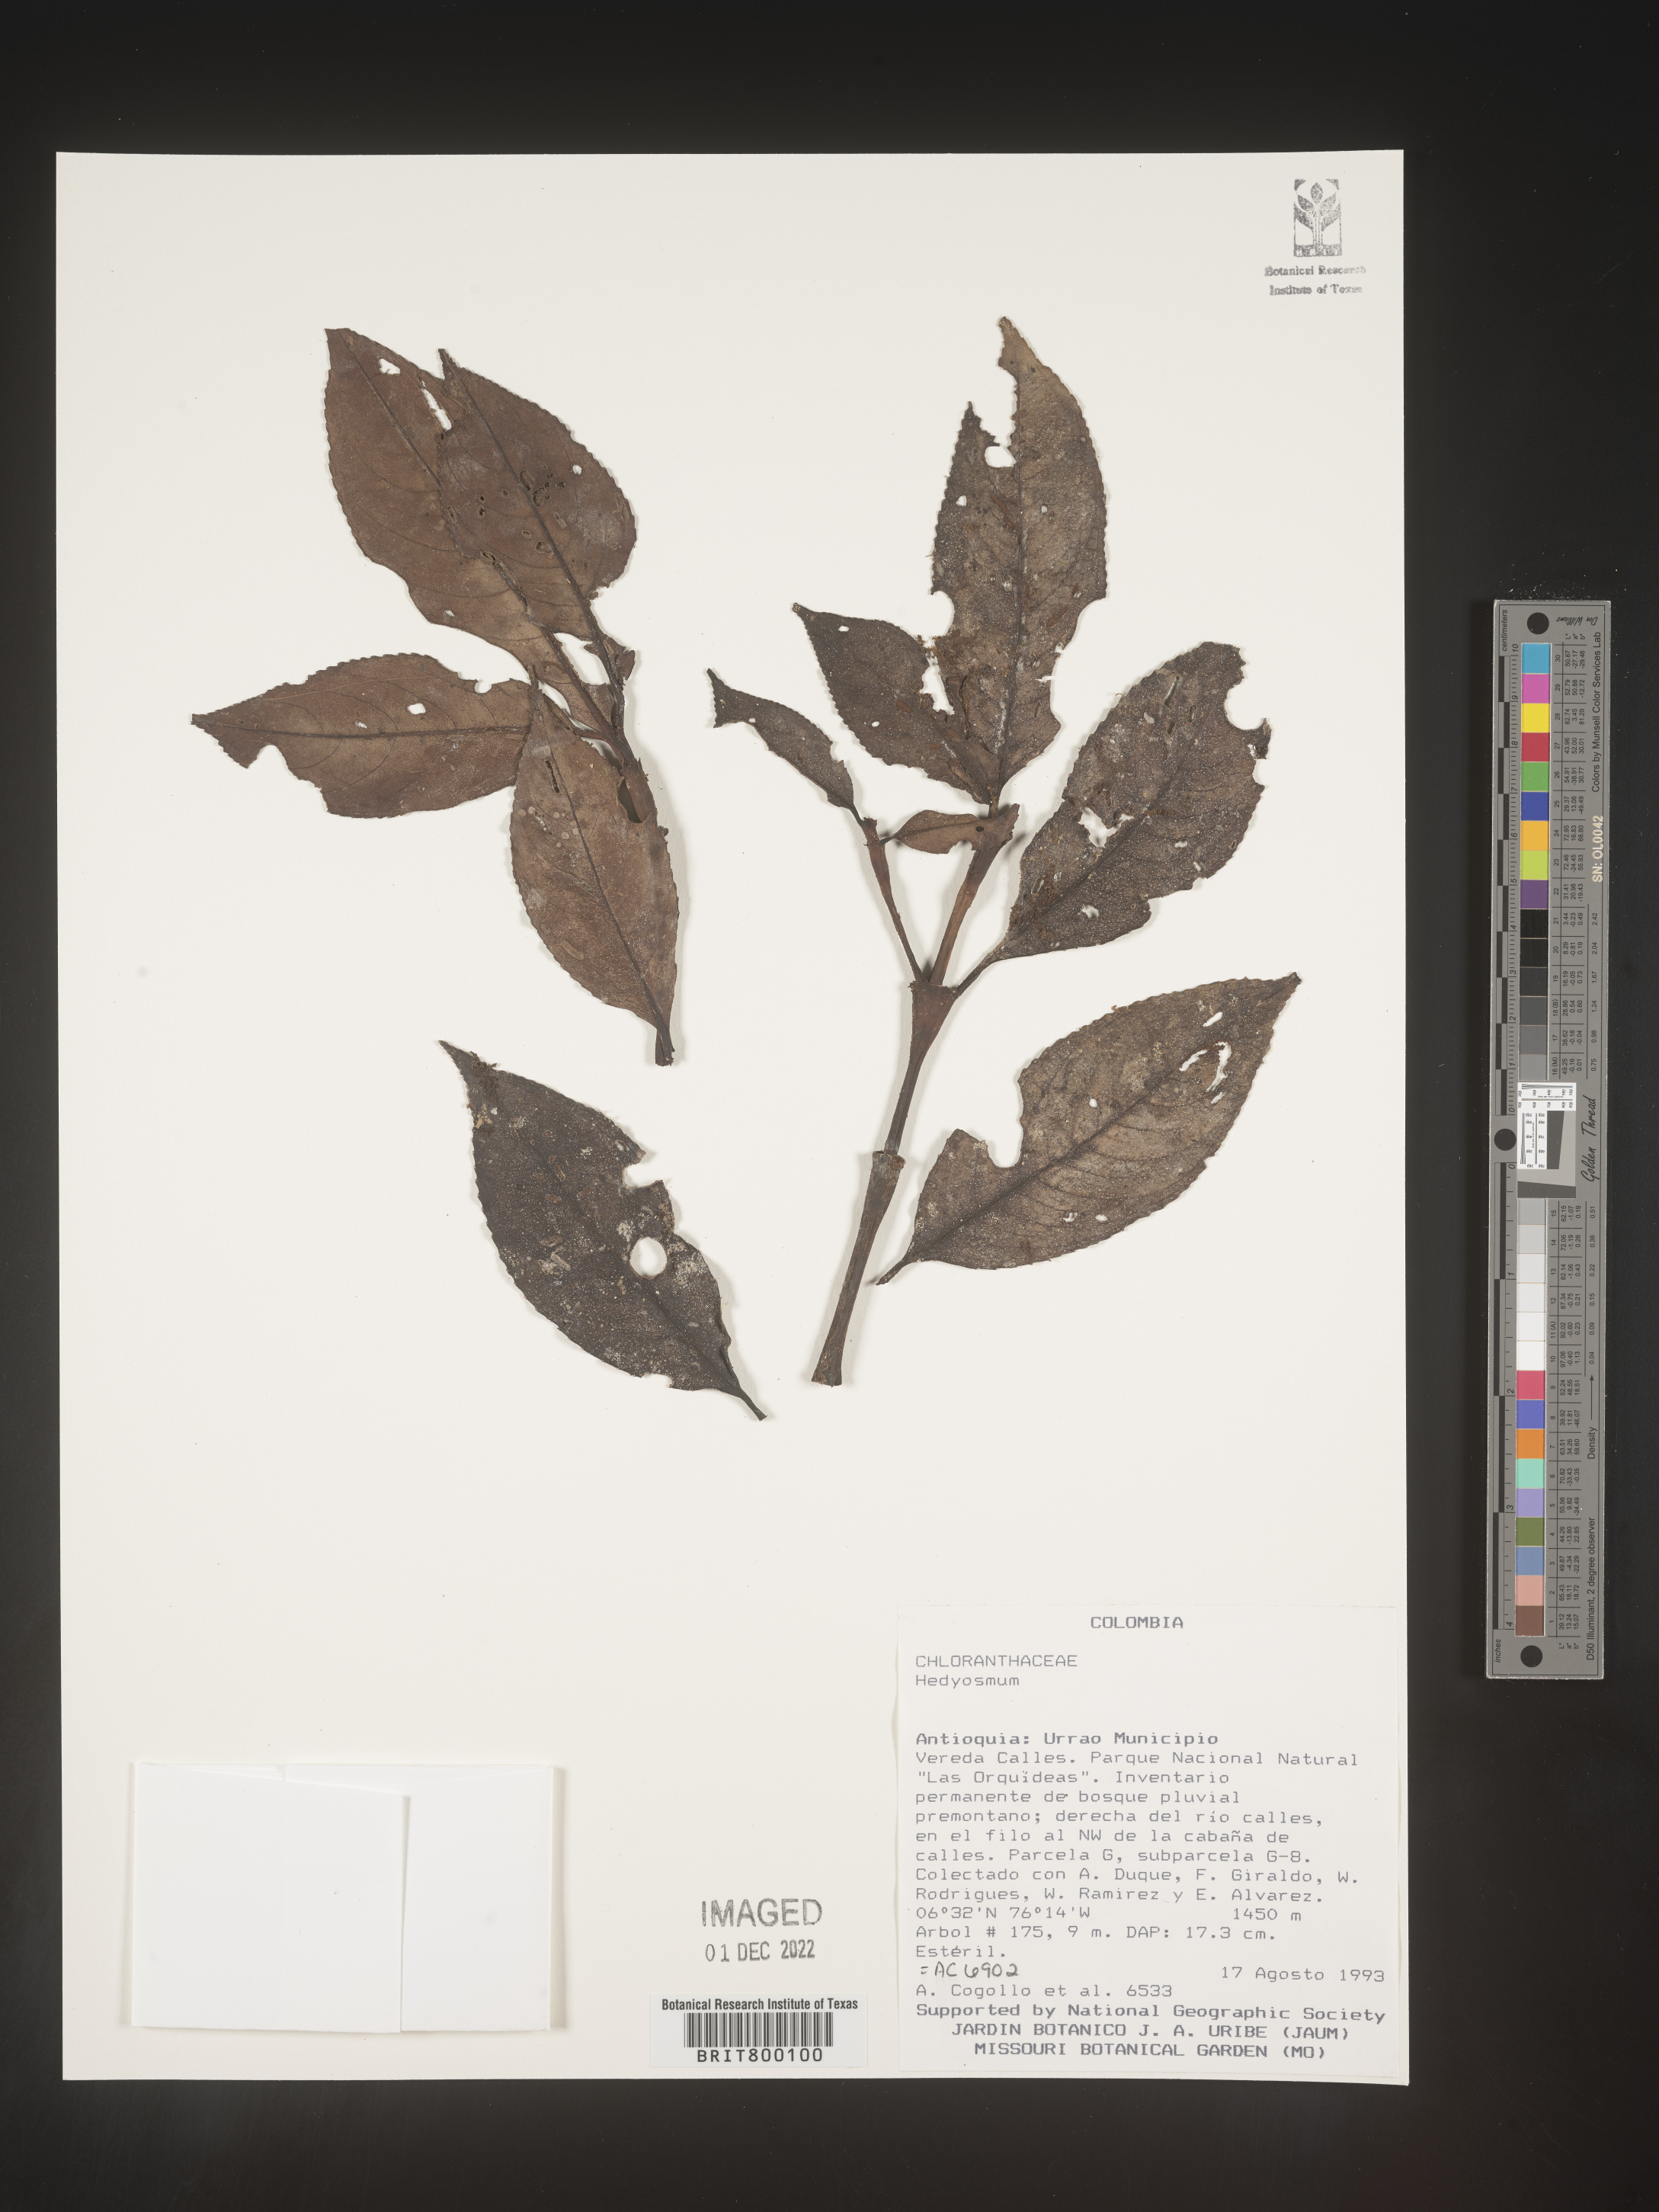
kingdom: Plantae
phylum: Tracheophyta
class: Magnoliopsida
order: Chloranthales
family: Chloranthaceae
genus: Hedyosmum
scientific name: Hedyosmum
